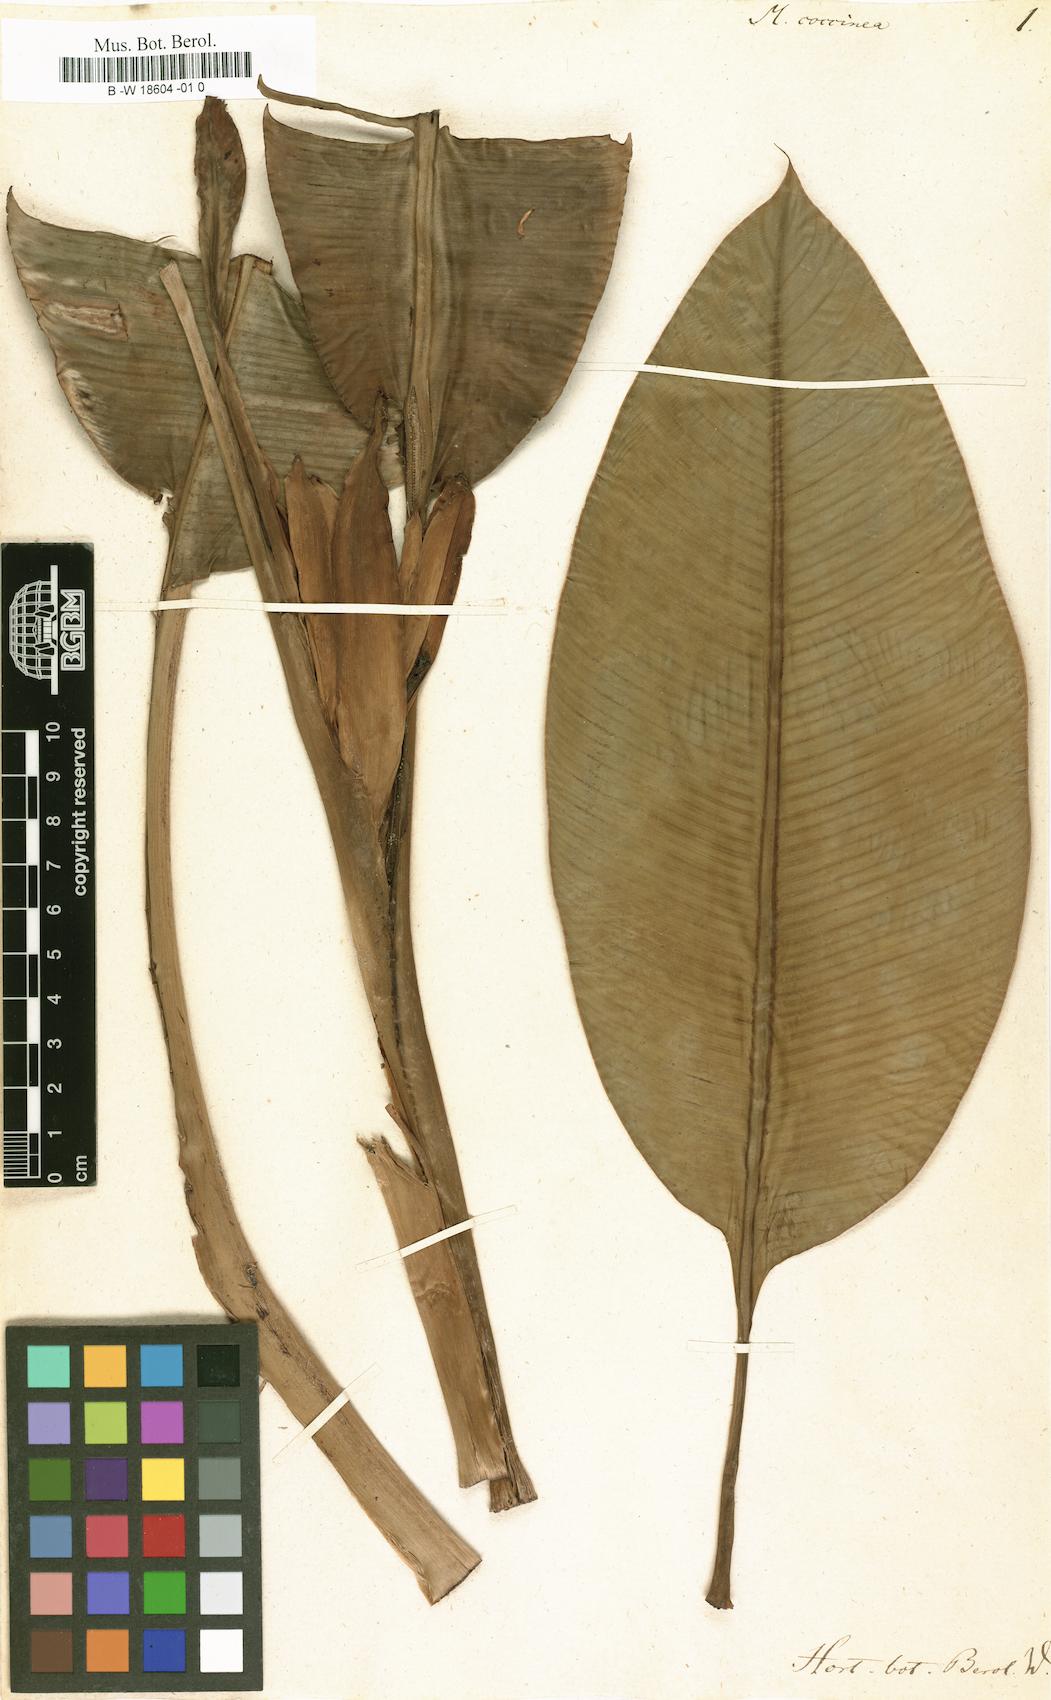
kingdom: Plantae
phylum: Tracheophyta
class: Liliopsida
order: Zingiberales
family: Musaceae
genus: Musa
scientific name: Musa coccinea
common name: Scarlet banana
